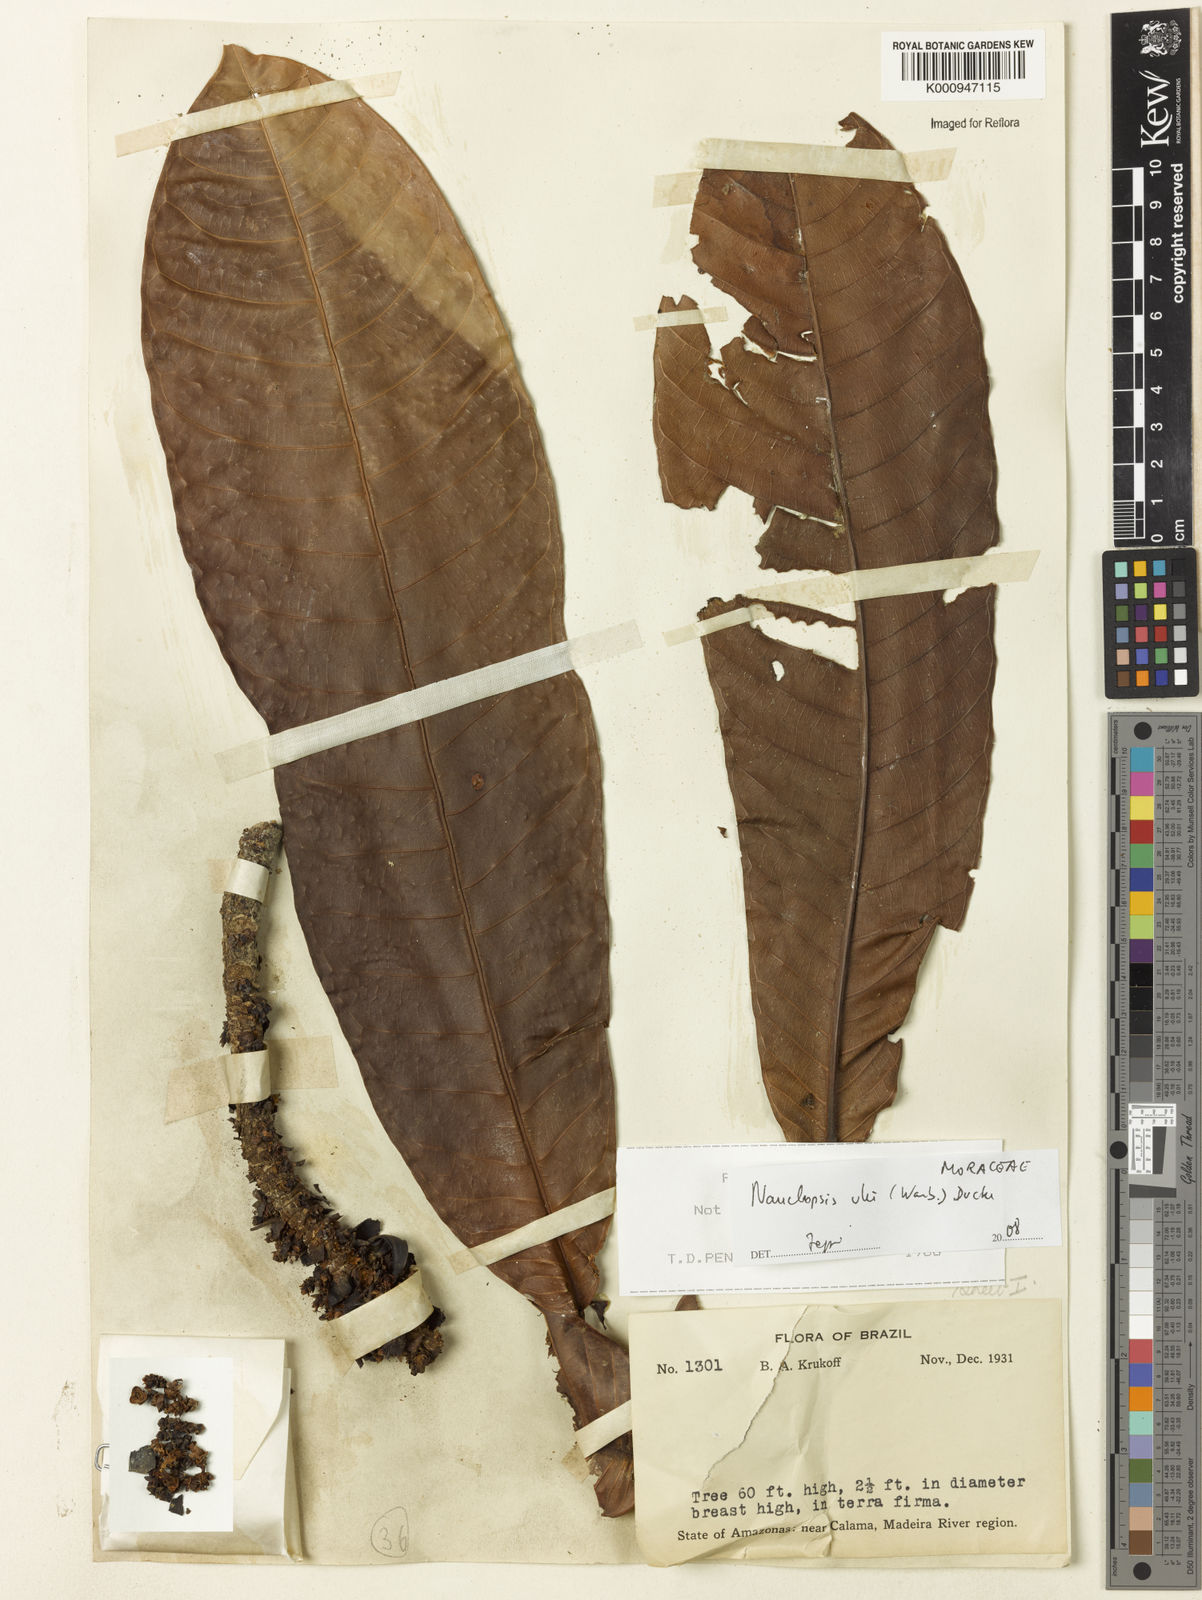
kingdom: Plantae
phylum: Tracheophyta
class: Magnoliopsida
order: Rosales
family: Moraceae
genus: Naucleopsis
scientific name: Naucleopsis ulei
